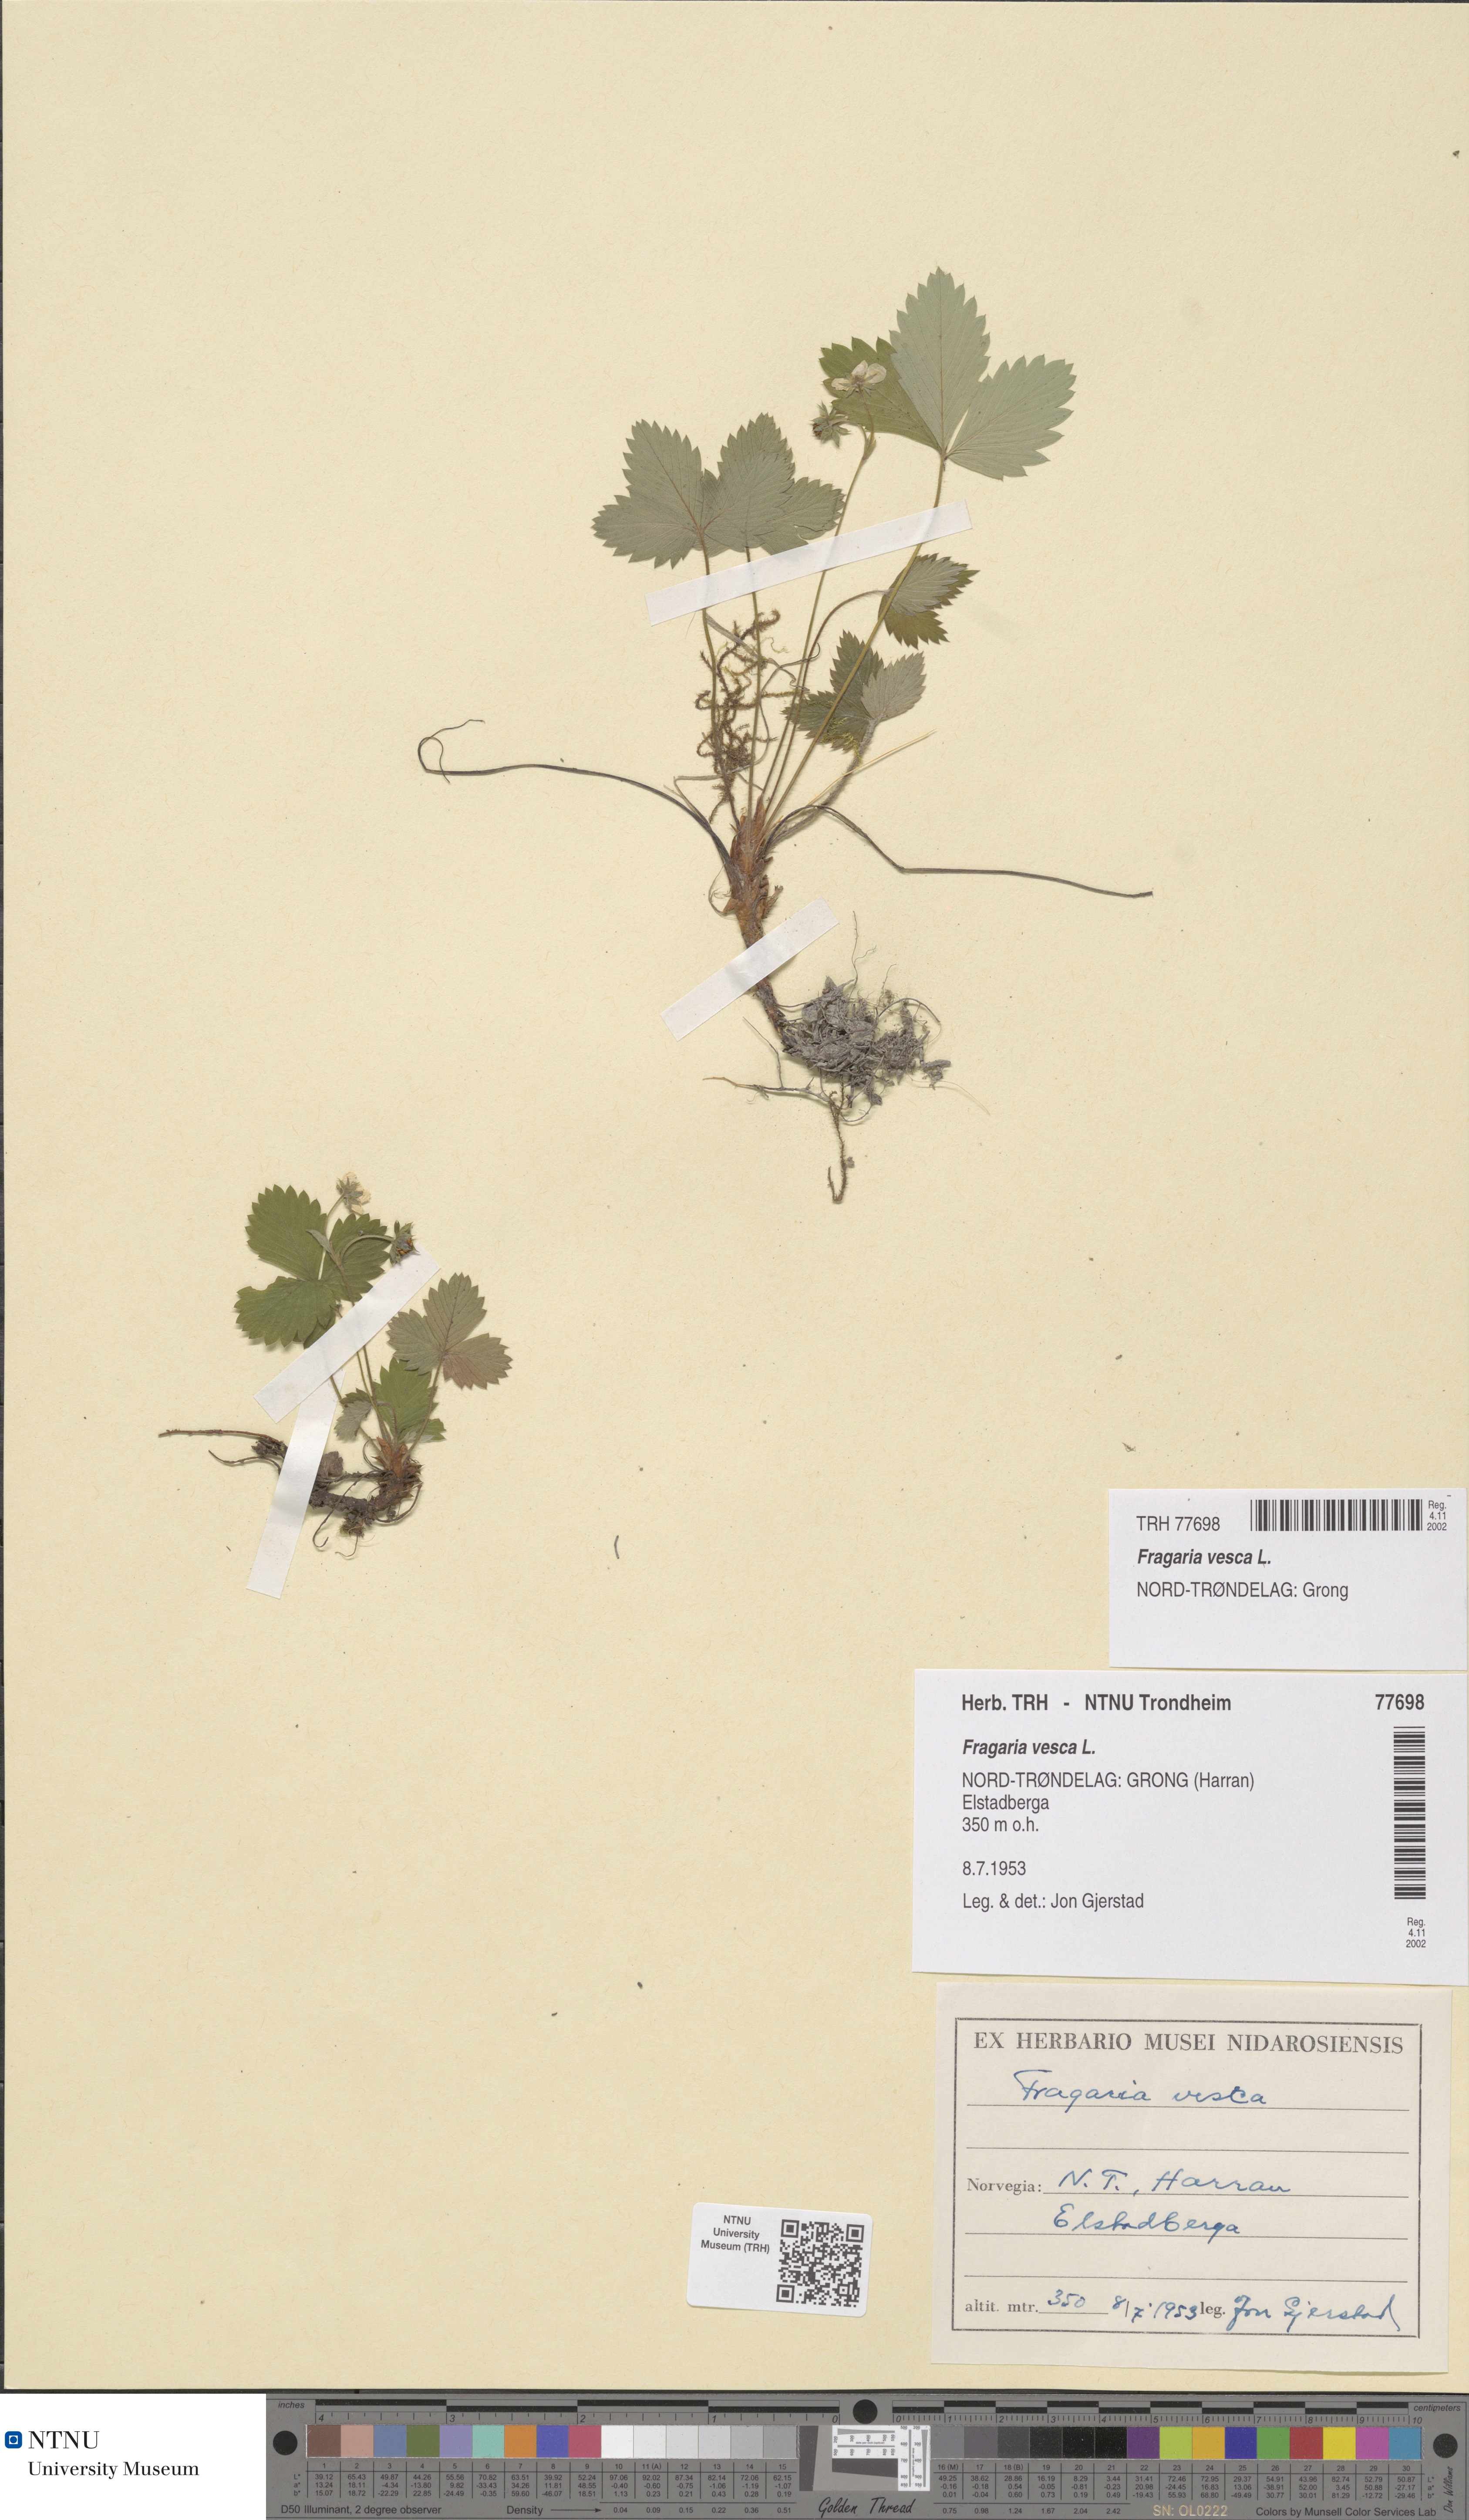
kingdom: Plantae
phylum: Tracheophyta
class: Magnoliopsida
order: Rosales
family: Rosaceae
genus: Fragaria
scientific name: Fragaria vesca
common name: Wild strawberry
